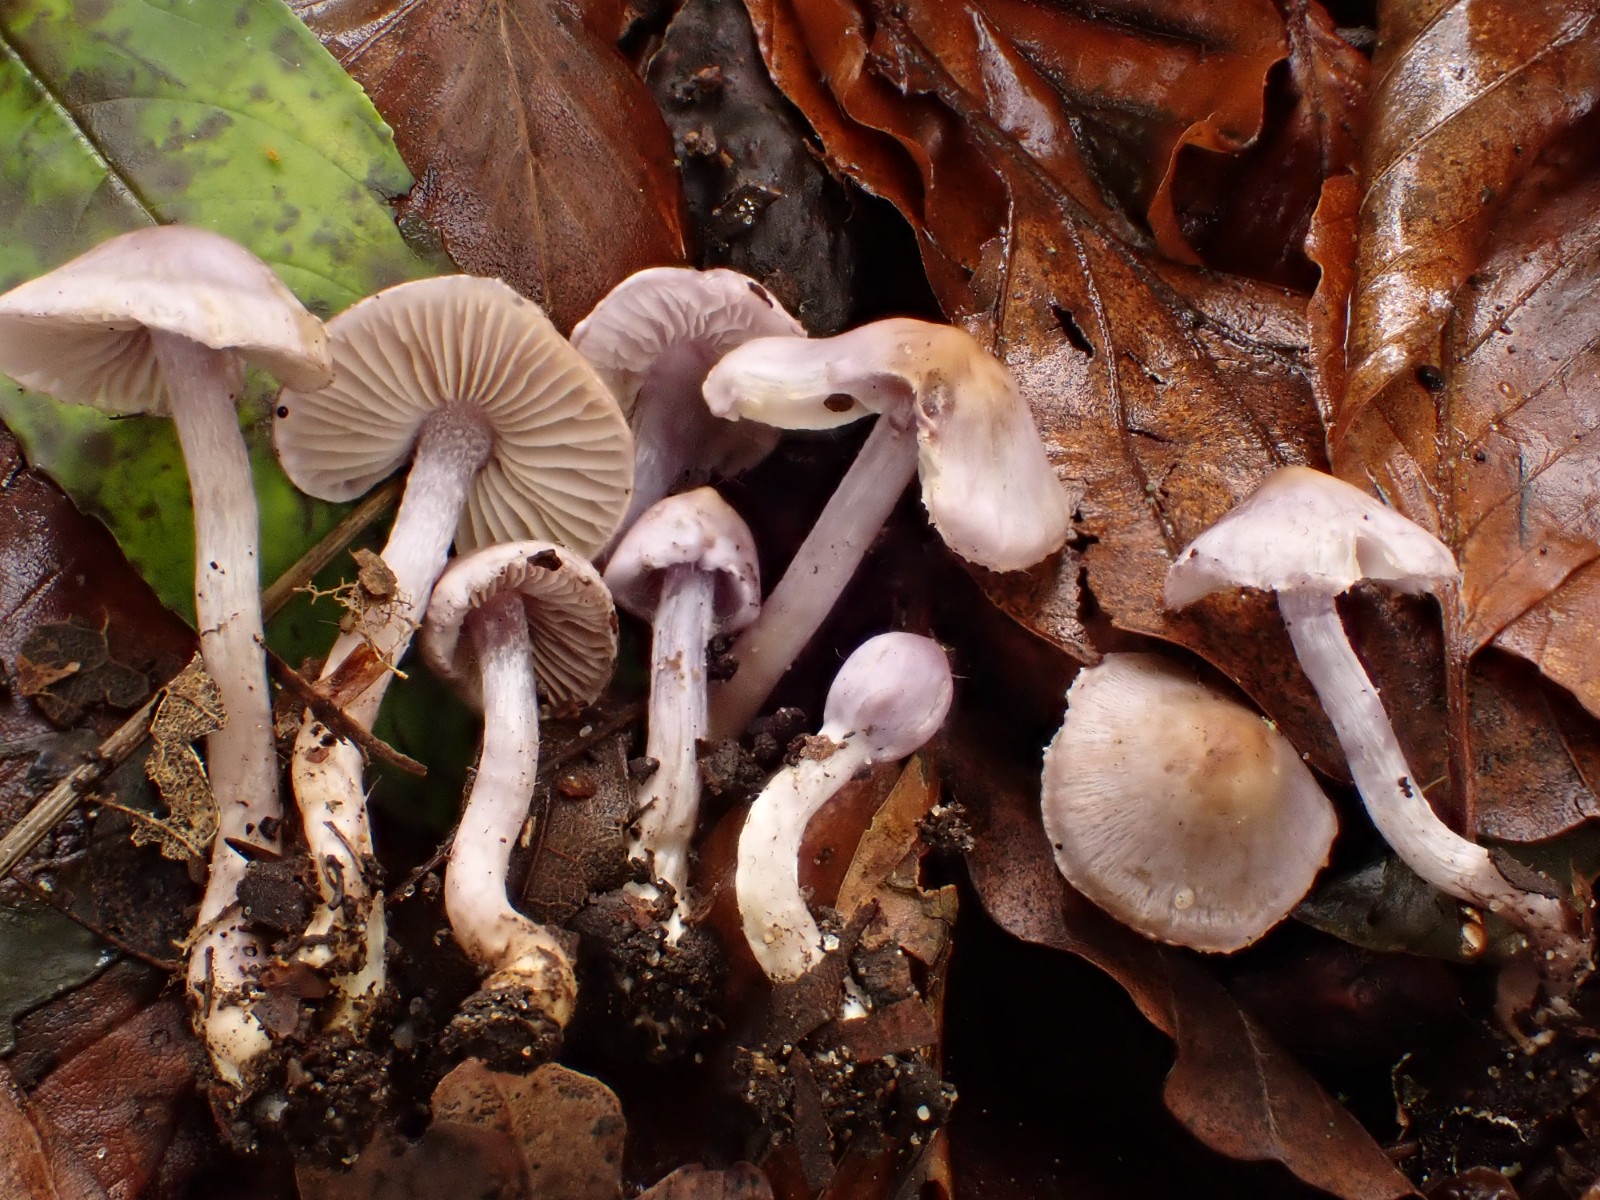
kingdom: Fungi
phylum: Basidiomycota
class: Agaricomycetes
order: Agaricales
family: Inocybaceae
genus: Inocybe
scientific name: Inocybe geophylla
